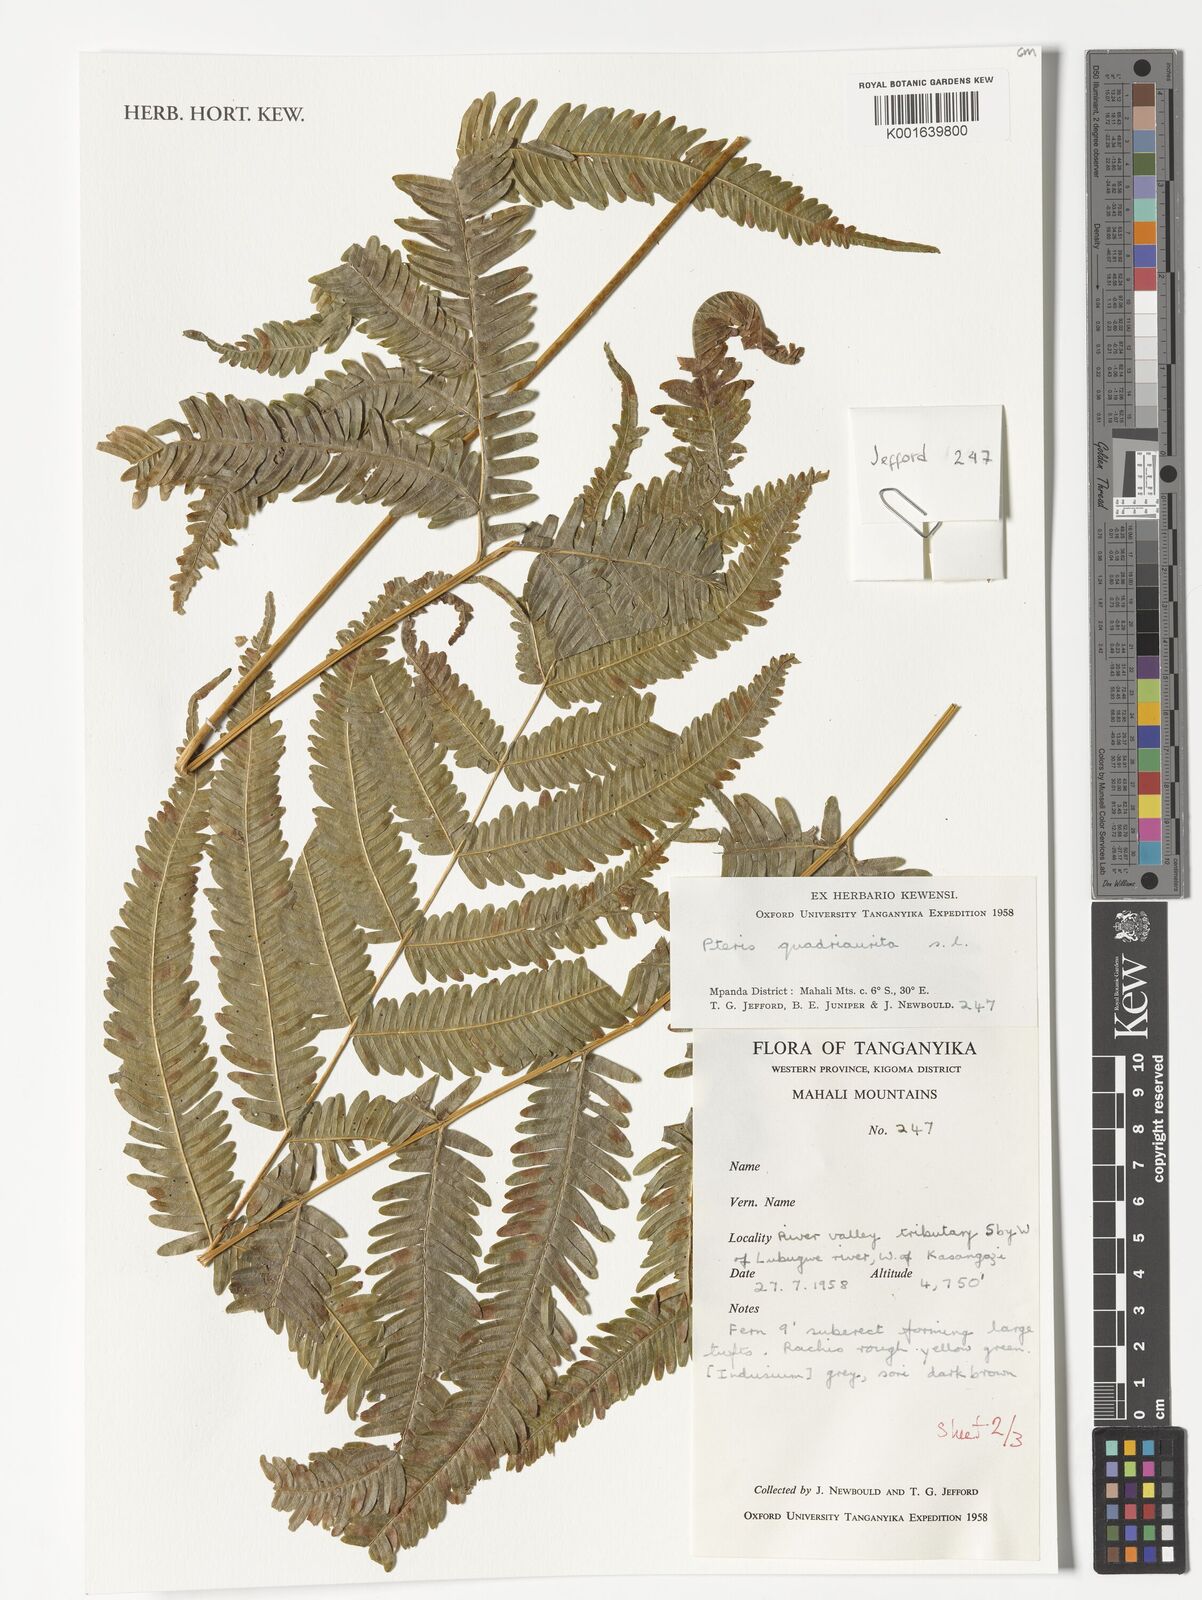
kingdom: Plantae
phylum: Tracheophyta
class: Polypodiopsida
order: Polypodiales
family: Pteridaceae
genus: Pteris
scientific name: Pteris quadriaurita
